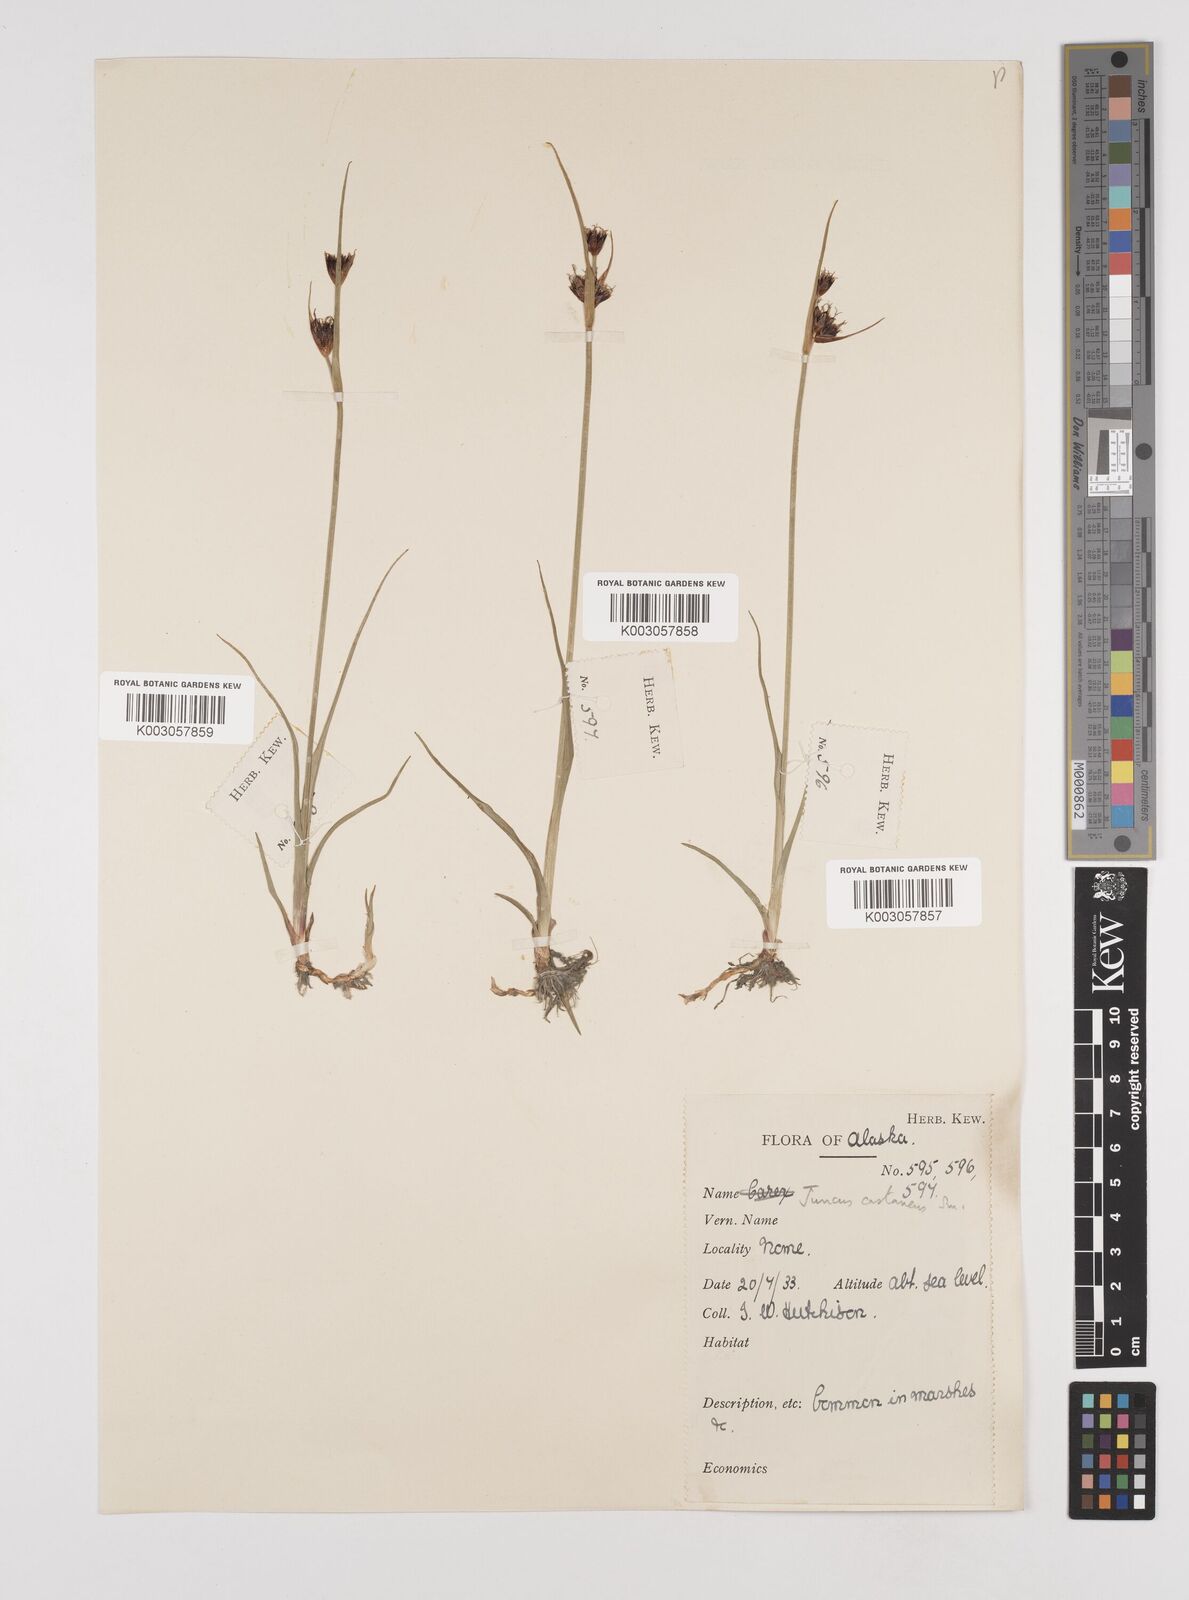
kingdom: Plantae
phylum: Tracheophyta
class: Liliopsida
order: Poales
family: Juncaceae
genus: Juncus
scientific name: Juncus castaneus
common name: Chestnut rush
